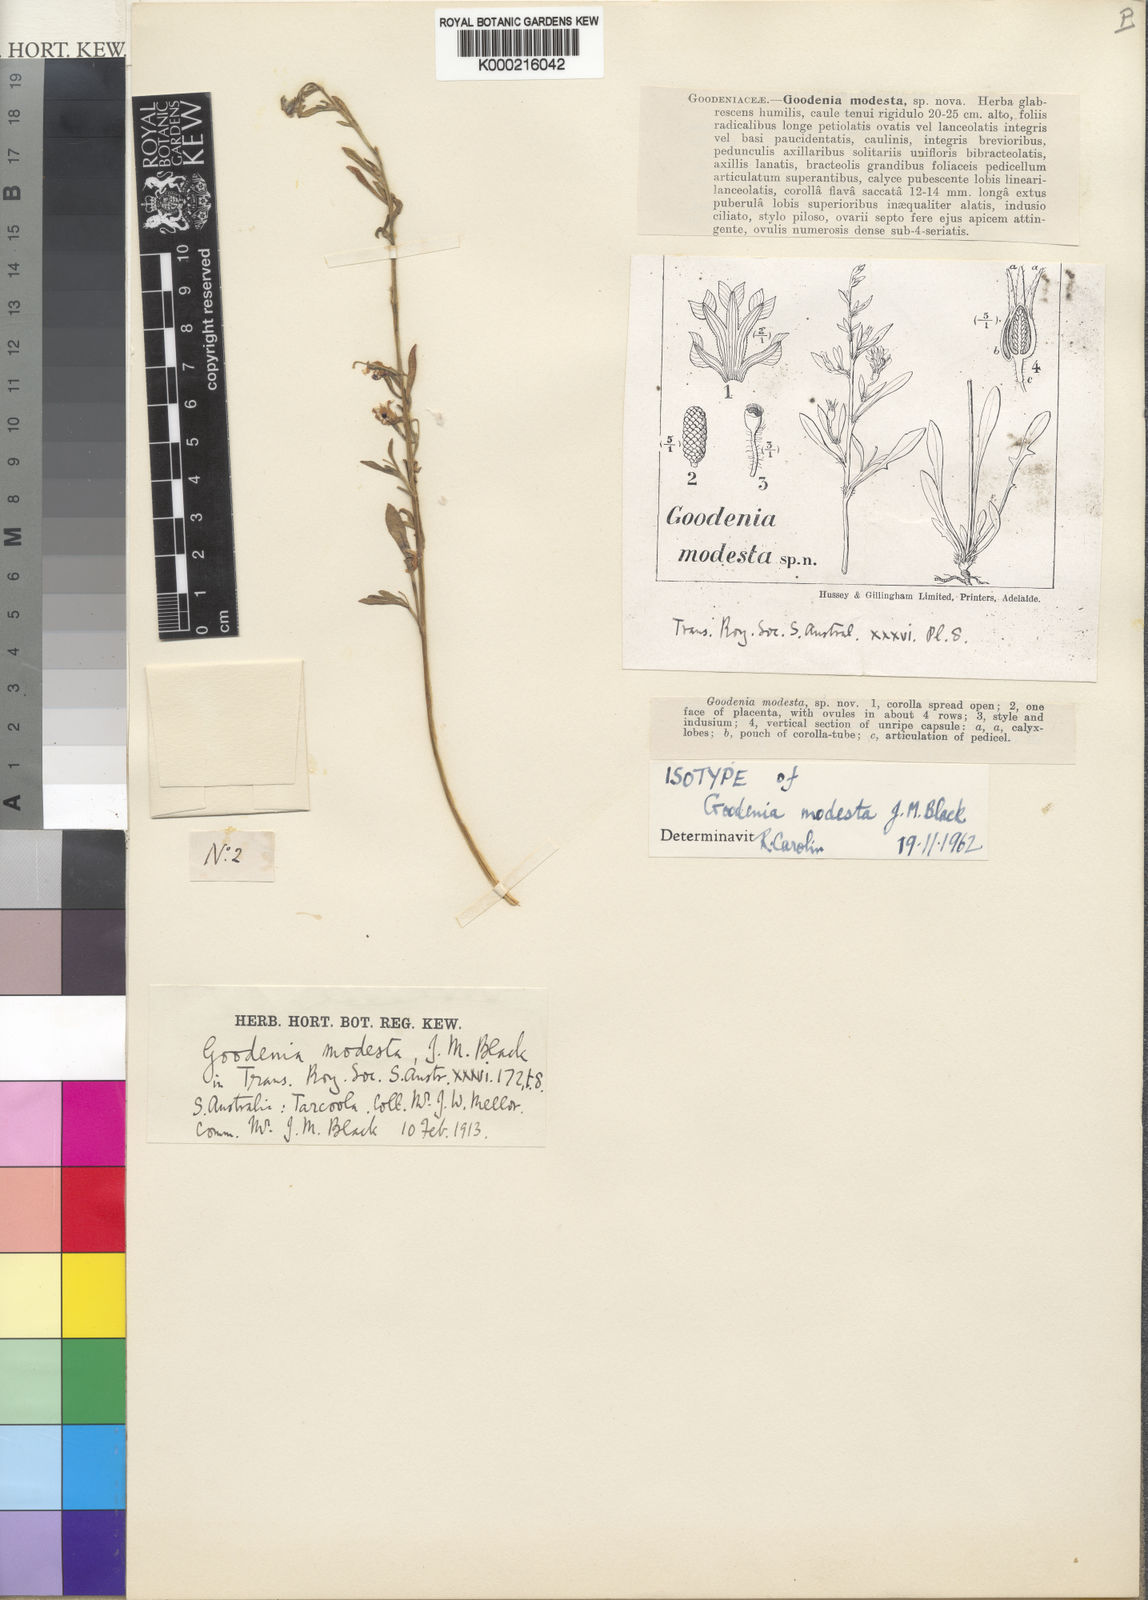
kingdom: Plantae
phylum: Tracheophyta
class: Magnoliopsida
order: Asterales
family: Goodeniaceae
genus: Goodenia
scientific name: Goodenia modesta
